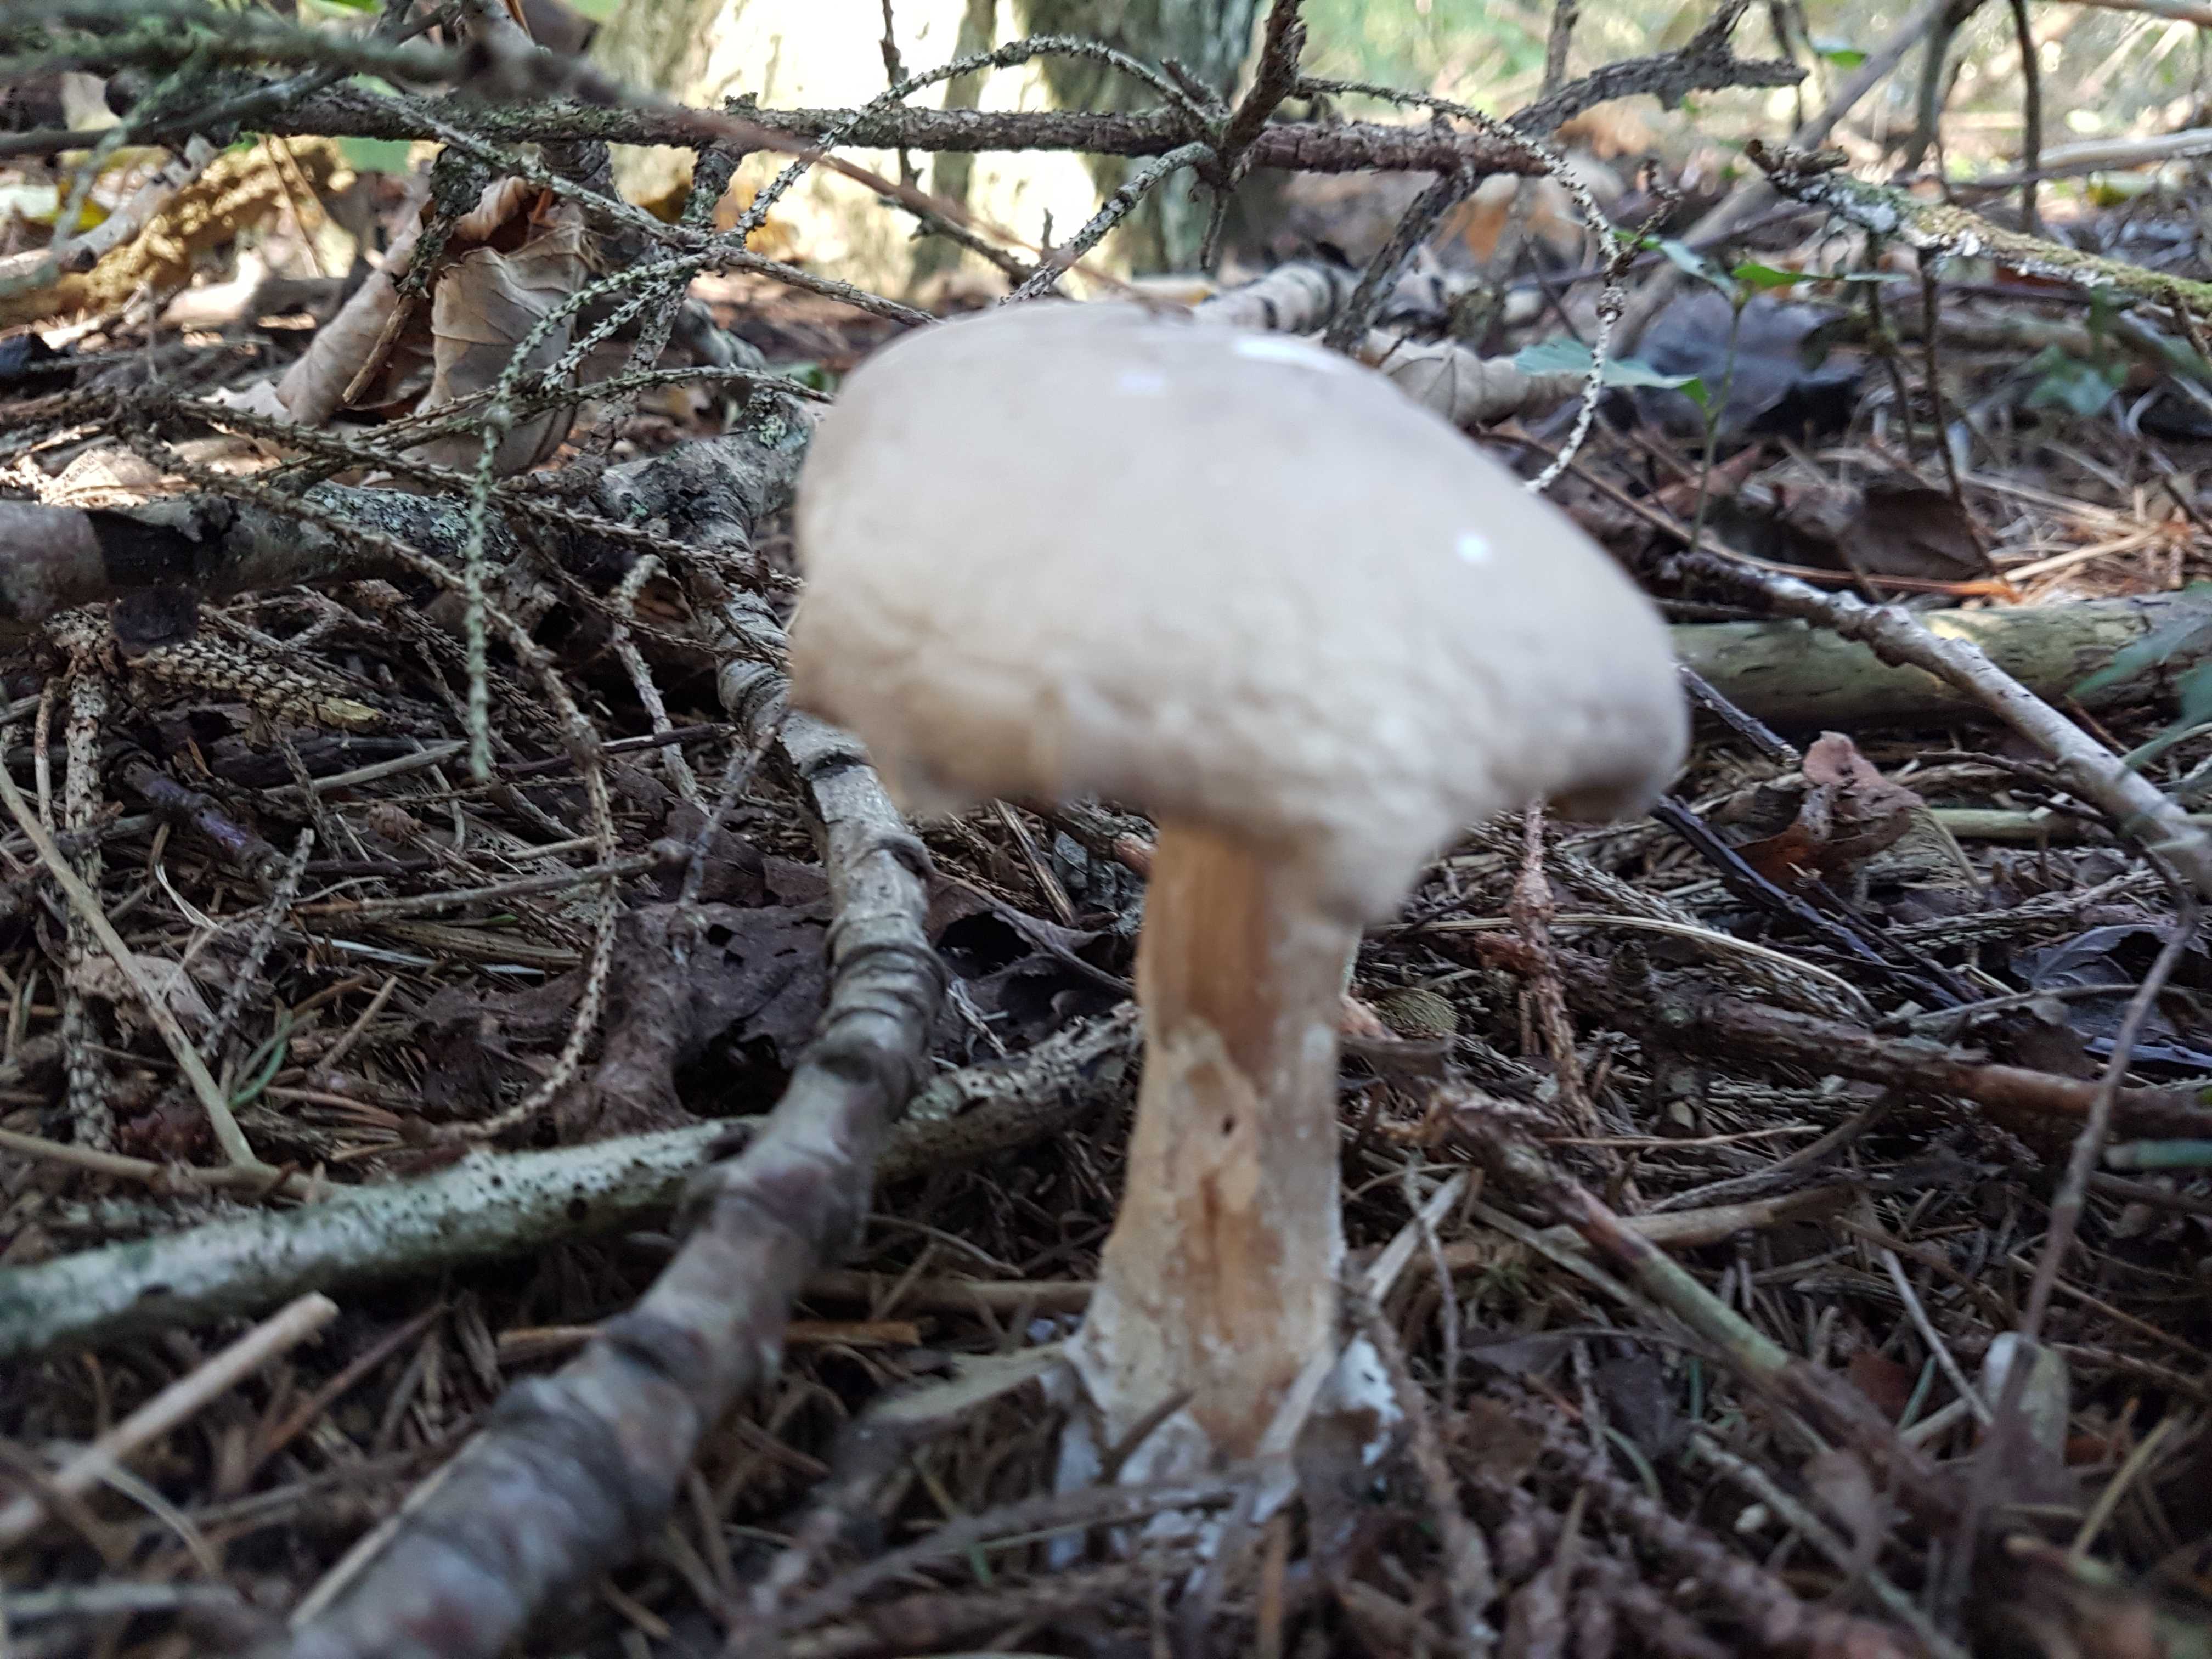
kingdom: Fungi
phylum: Basidiomycota
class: Agaricomycetes
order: Agaricales
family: Tricholomataceae
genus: Clitocybe
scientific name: Clitocybe nebularis
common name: tåge-tragthat
